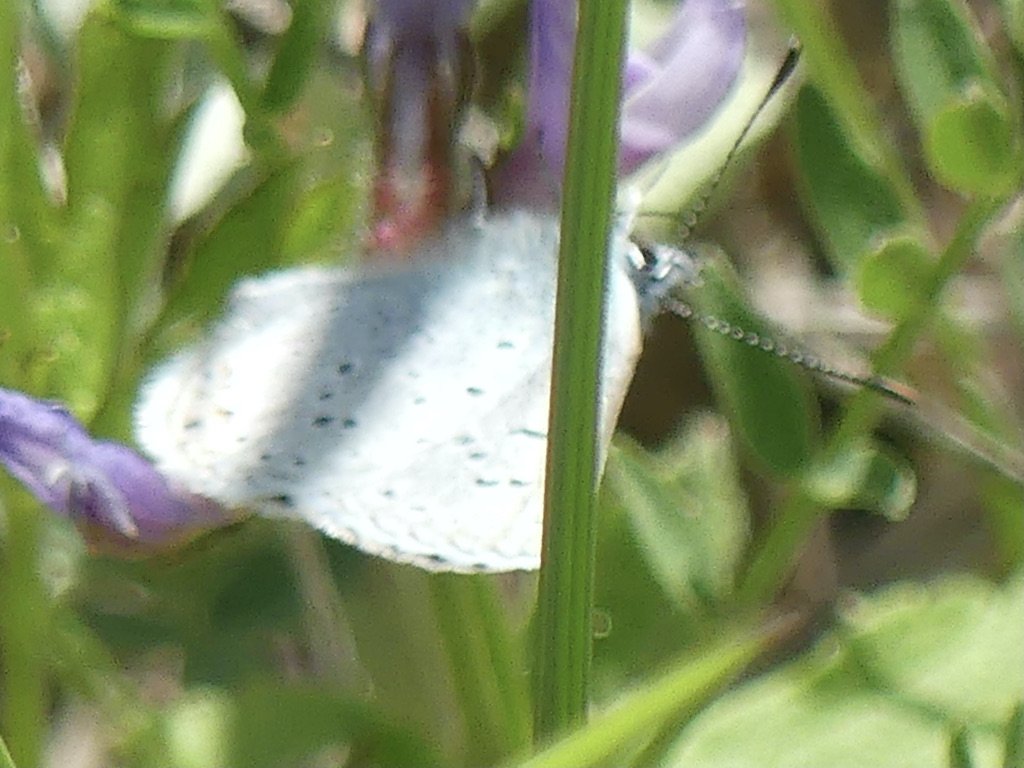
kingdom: Animalia
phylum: Arthropoda
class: Insecta
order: Lepidoptera
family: Lycaenidae
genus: Plebejus
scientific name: Plebejus saepiolus
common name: Greenish Blue
